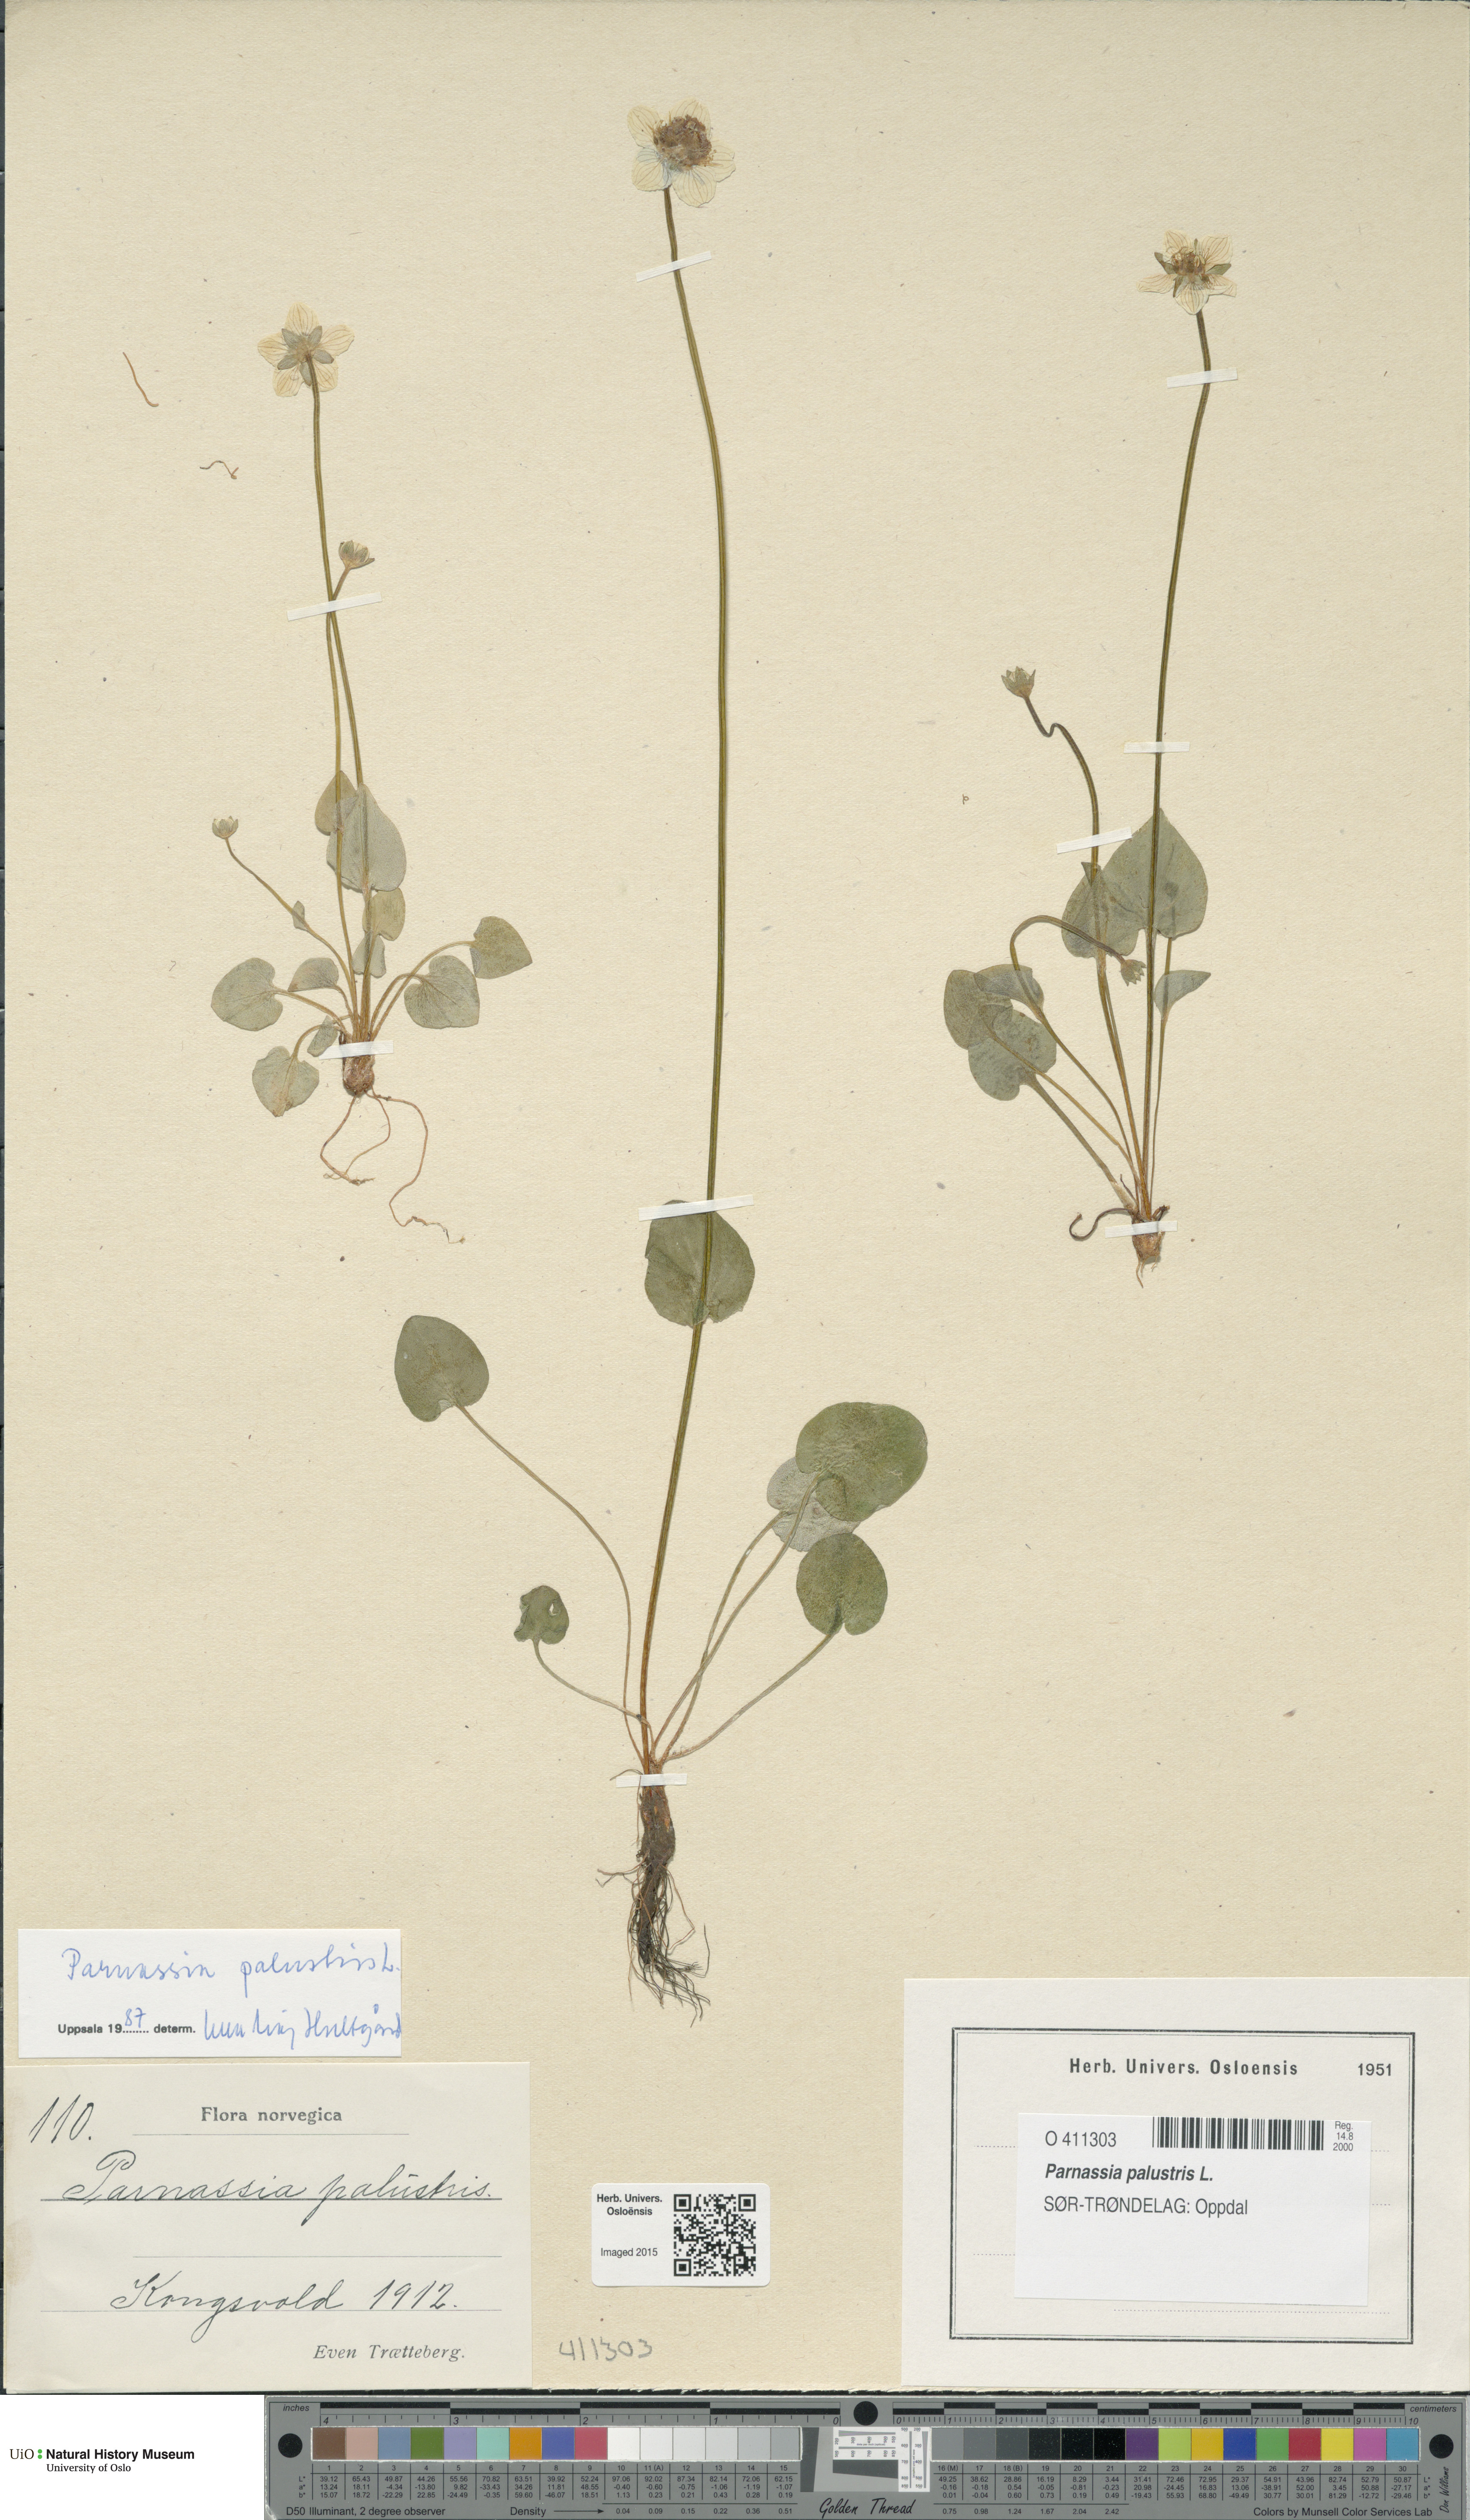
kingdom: Plantae
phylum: Tracheophyta
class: Magnoliopsida
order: Celastrales
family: Parnassiaceae
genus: Parnassia
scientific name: Parnassia palustris
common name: Grass-of-parnassus
